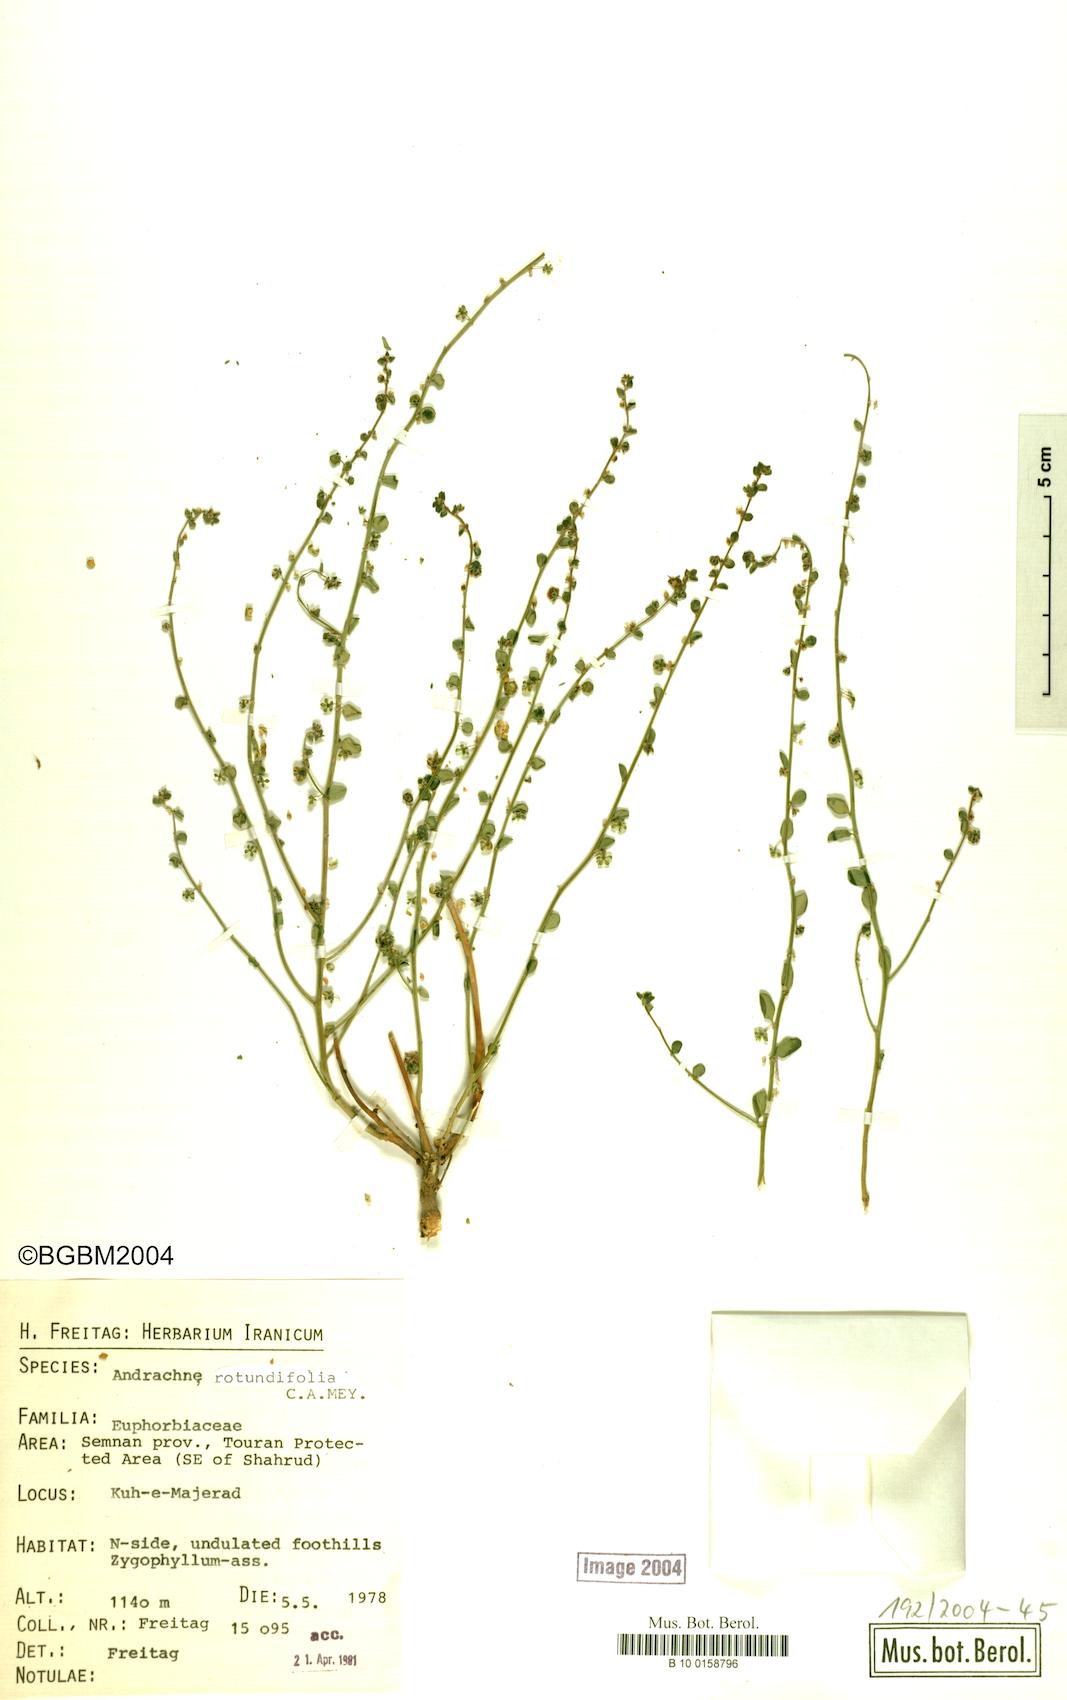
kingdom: Plantae
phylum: Tracheophyta
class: Magnoliopsida
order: Malpighiales
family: Phyllanthaceae
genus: Andrachne
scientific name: Andrachne telephioides
